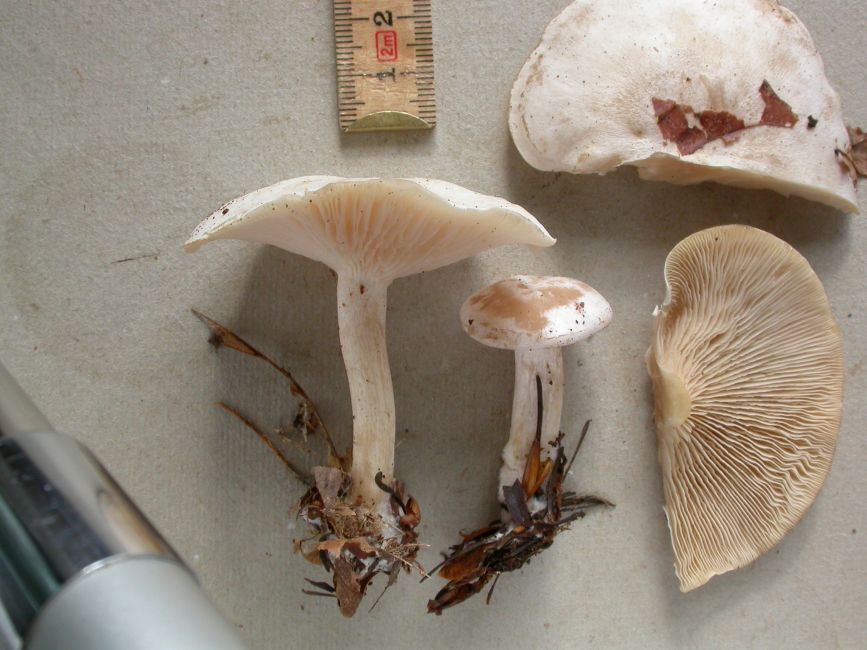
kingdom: Fungi
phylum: Basidiomycota
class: Agaricomycetes
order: Agaricales
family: Tricholomataceae
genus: Clitocybe
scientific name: Clitocybe phyllophila
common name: løv-tragthat
